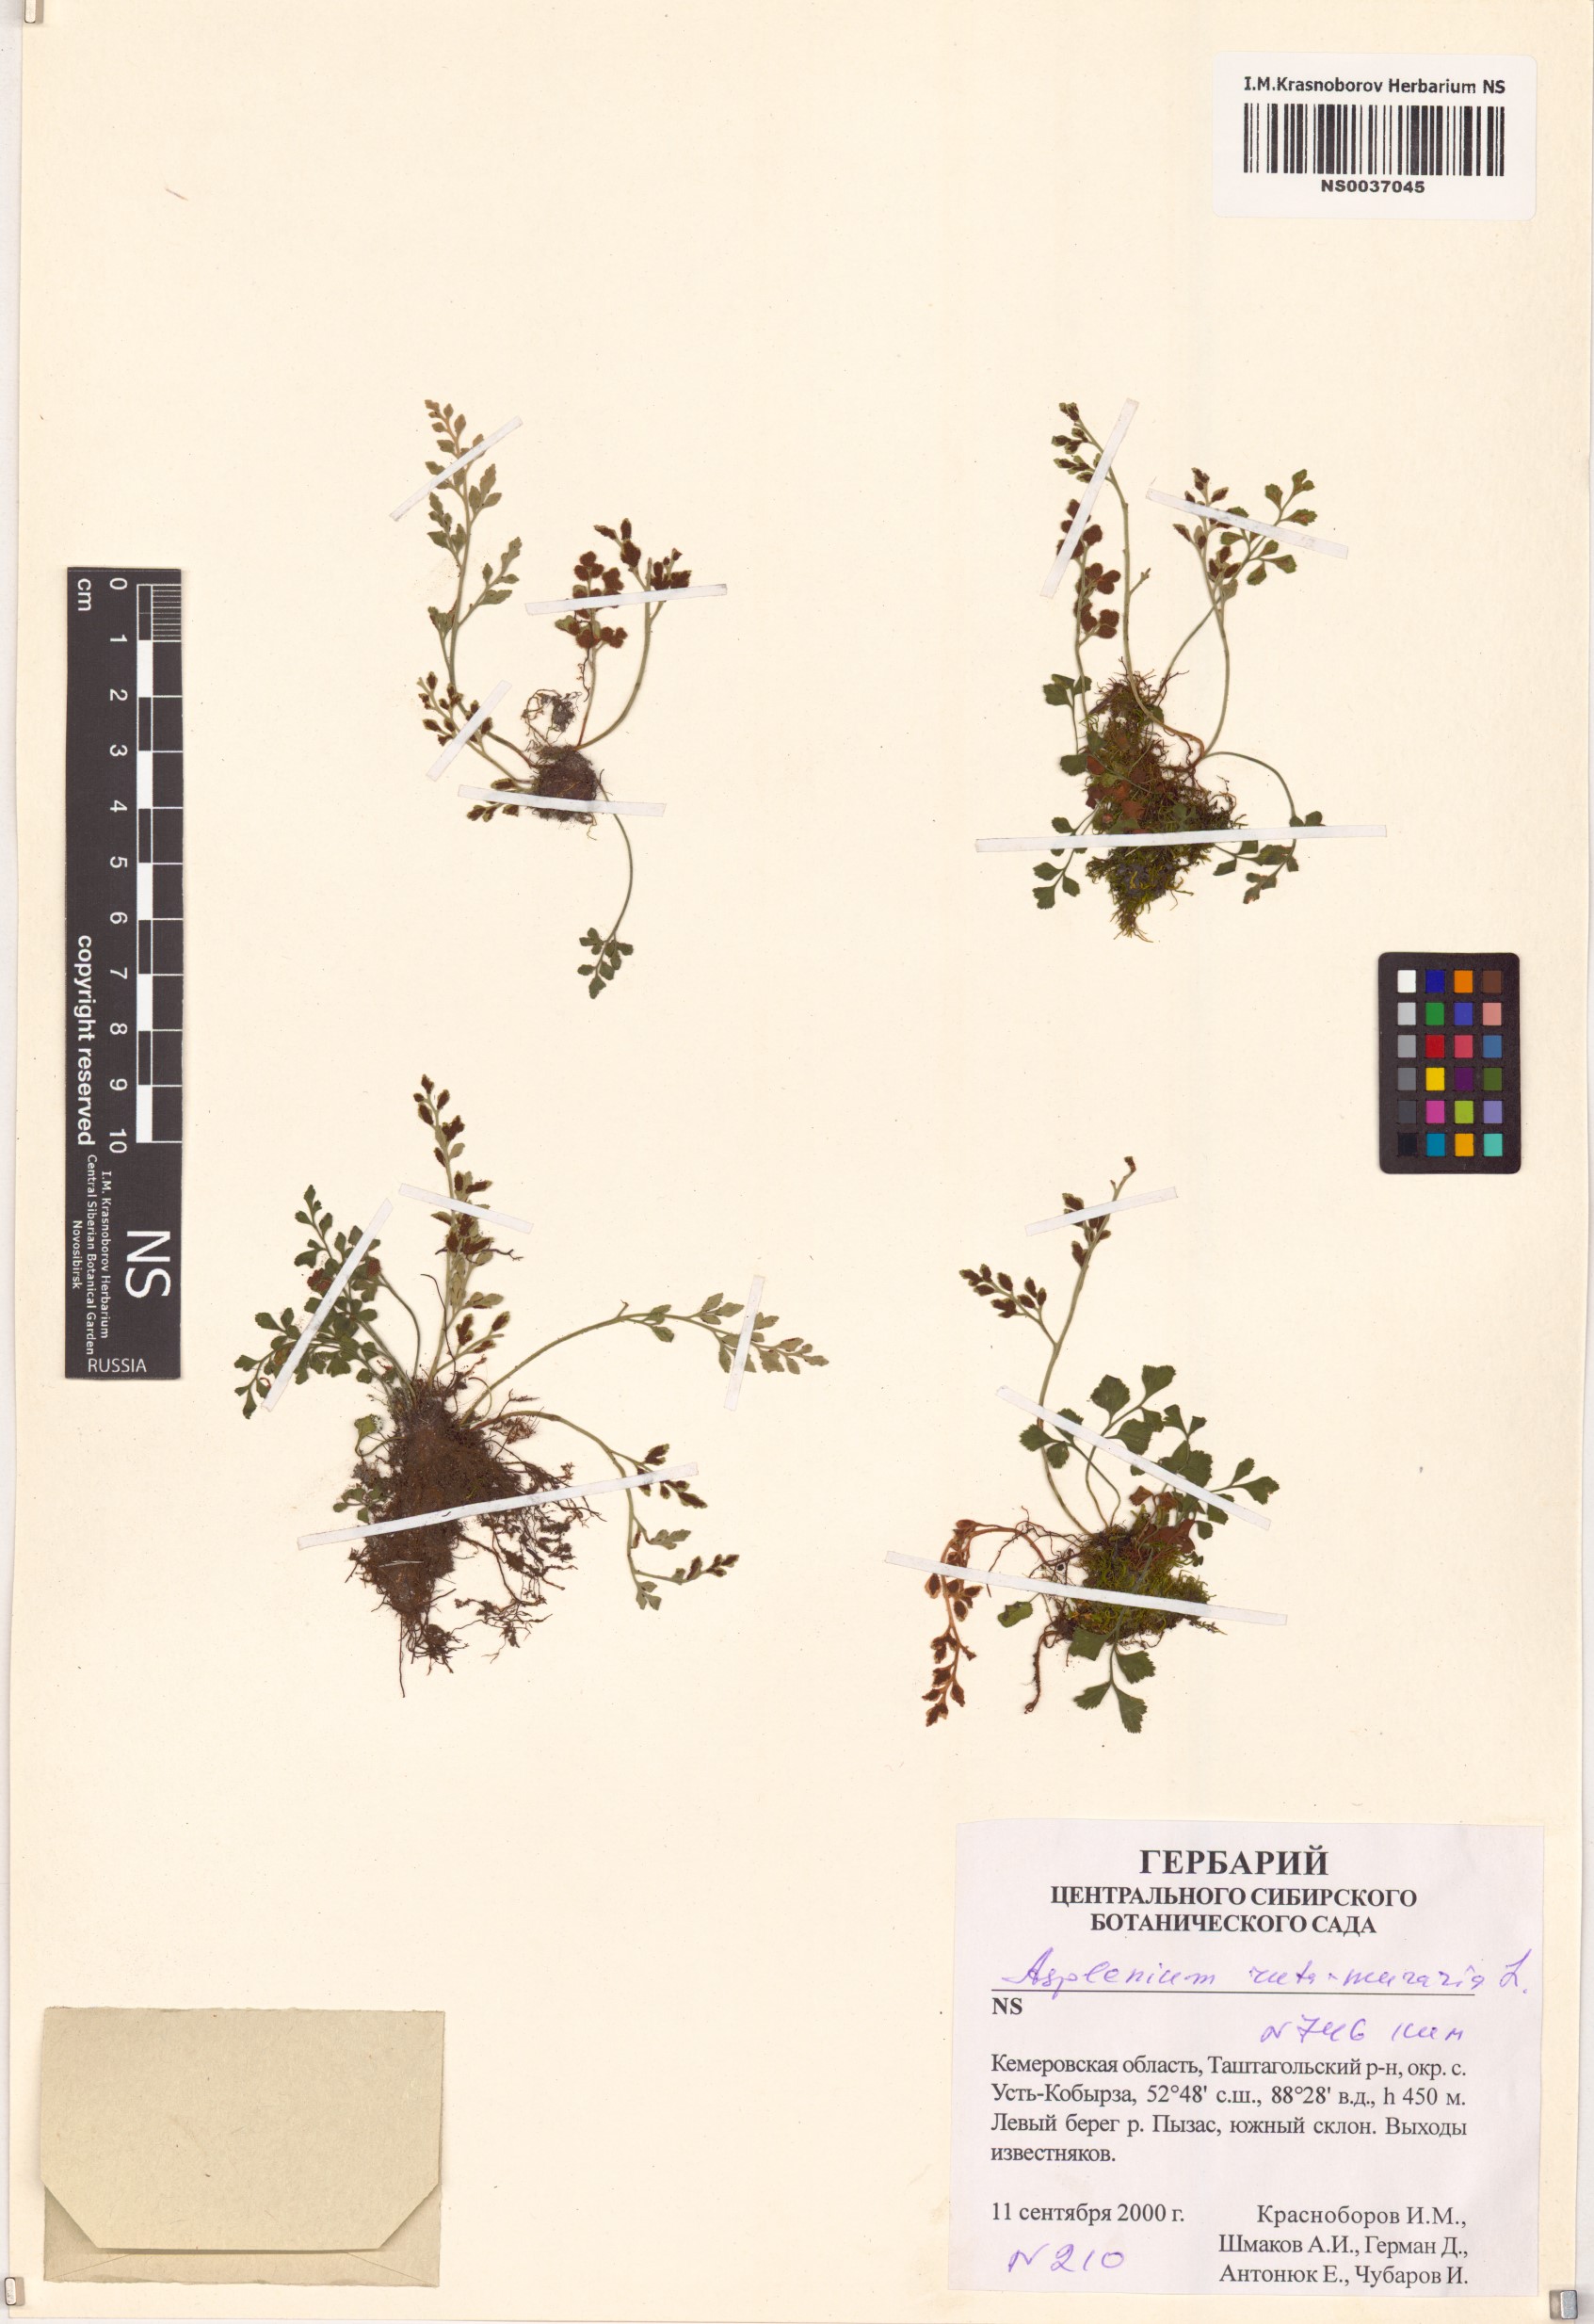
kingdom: Plantae
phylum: Tracheophyta
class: Polypodiopsida
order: Polypodiales
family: Aspleniaceae
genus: Asplenium
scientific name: Asplenium ruta-muraria
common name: Wall-rue
